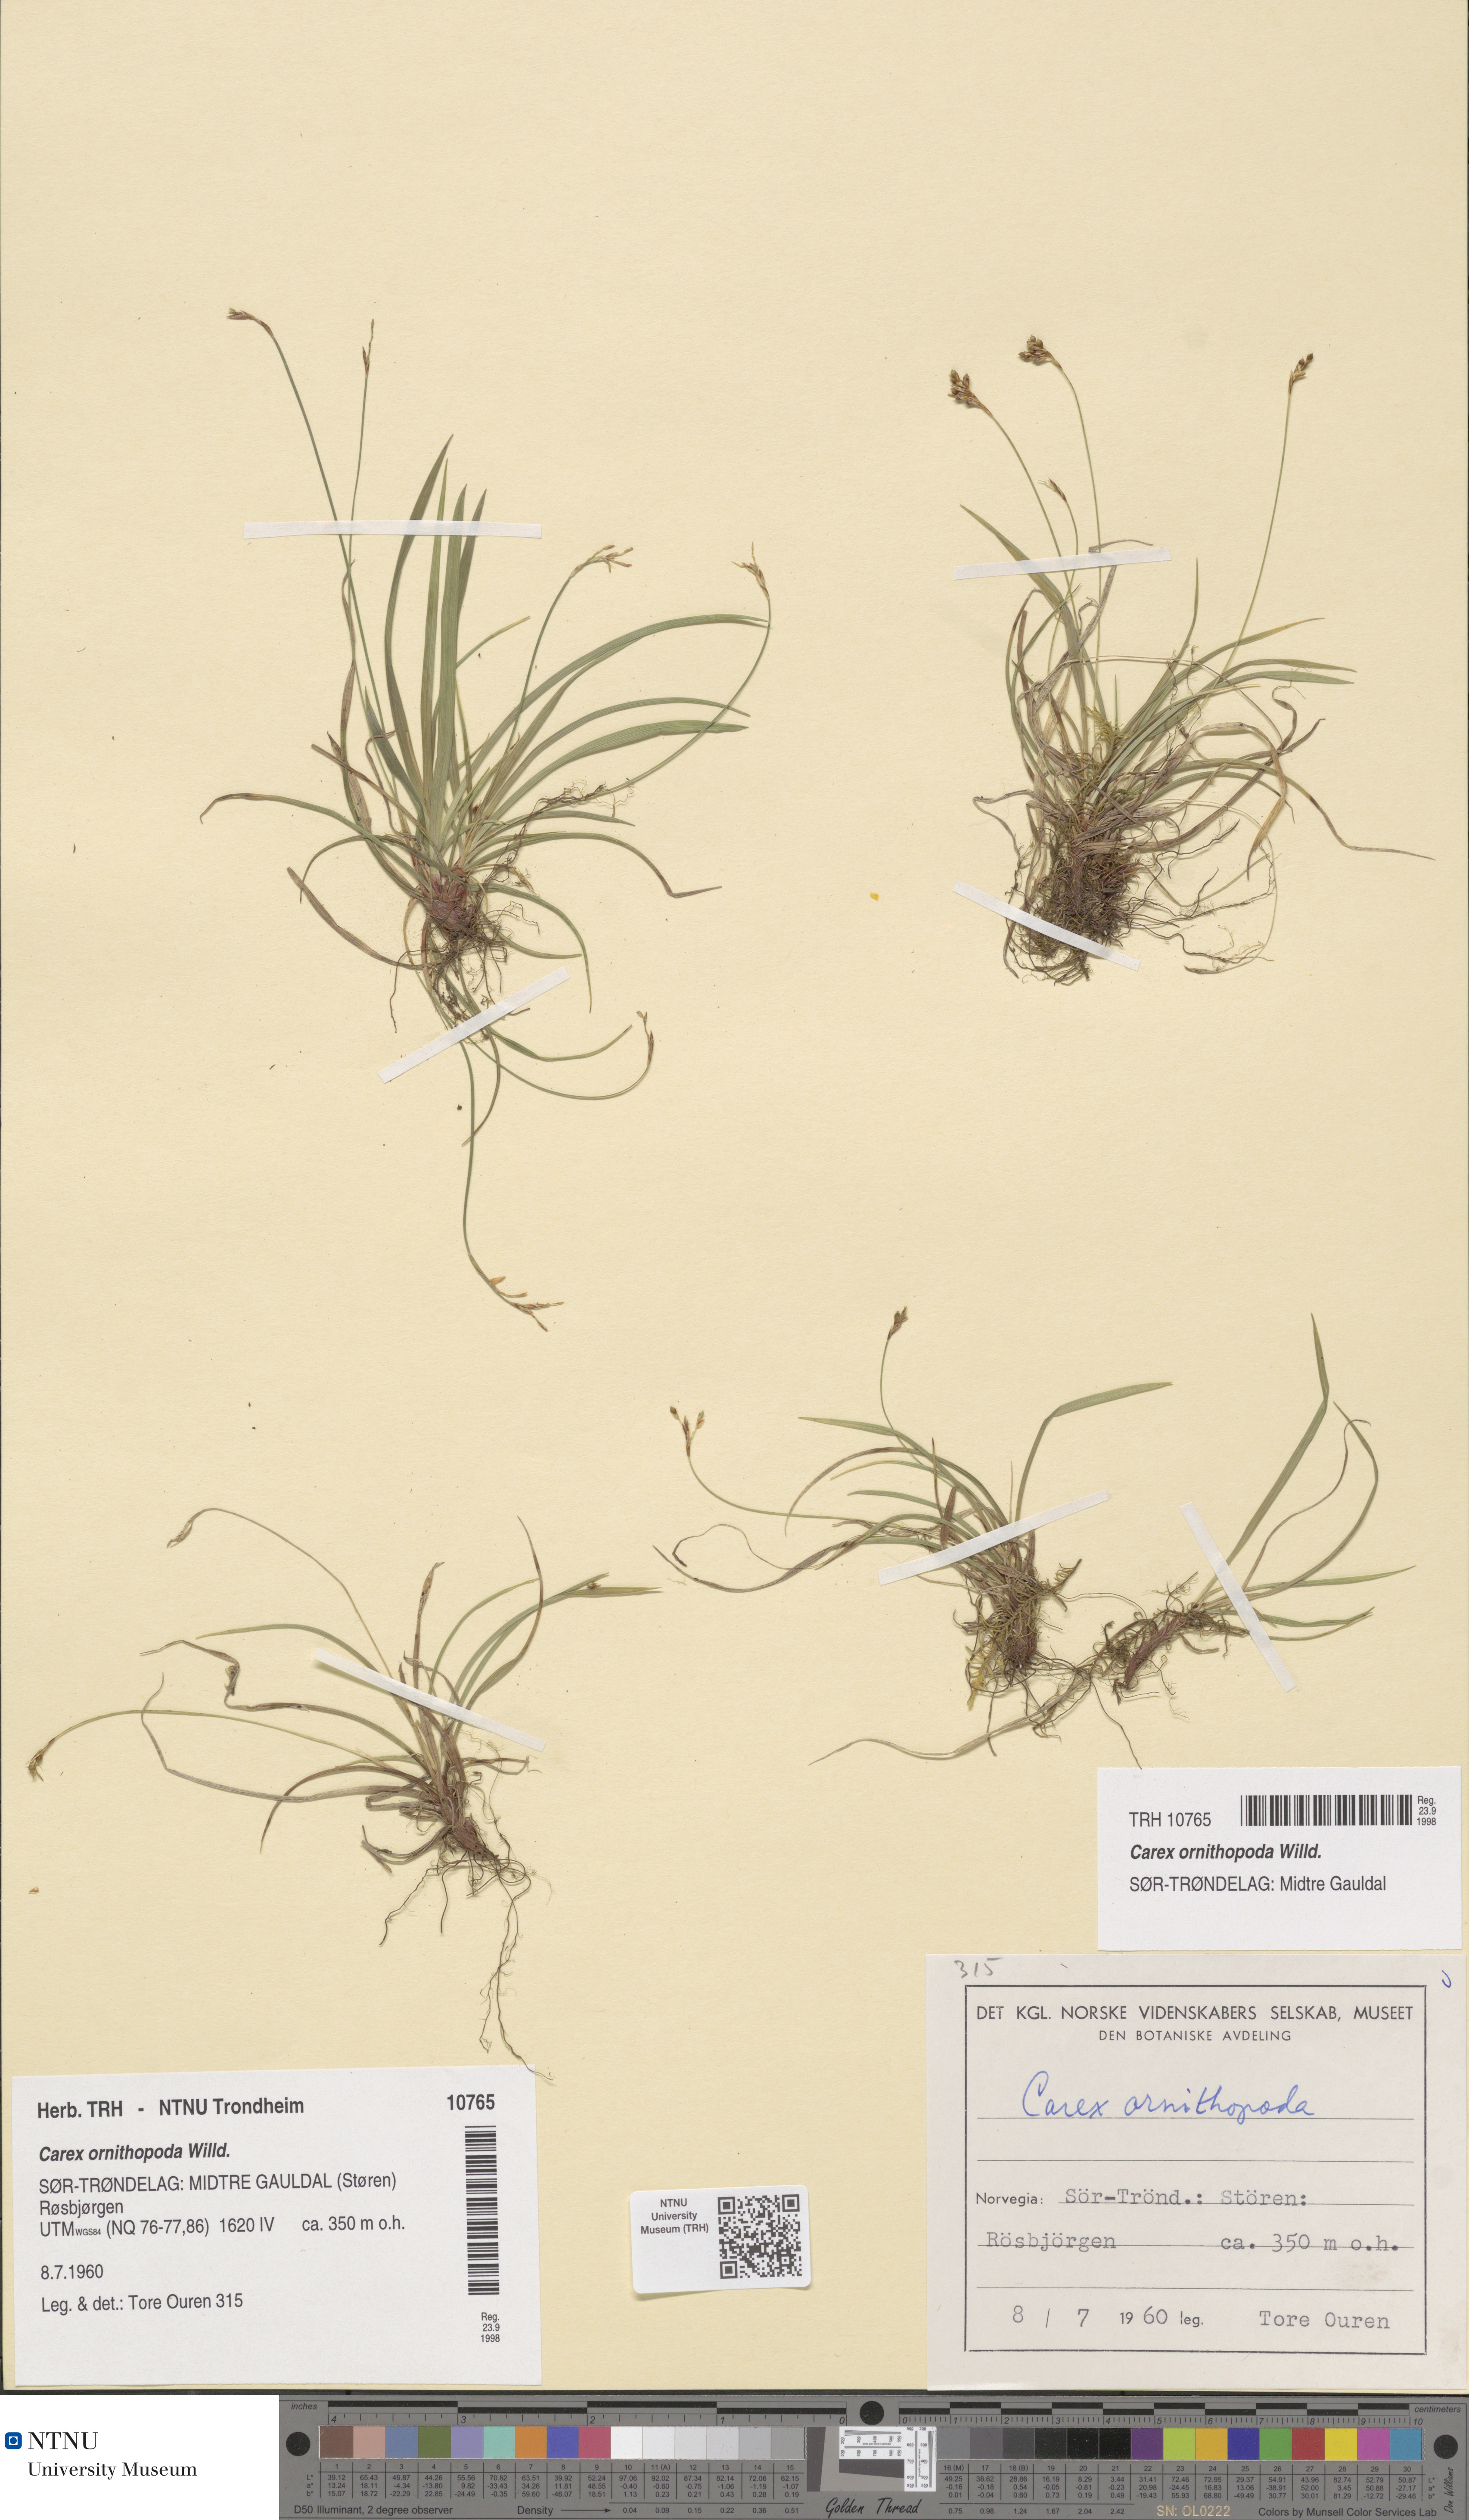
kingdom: Plantae
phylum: Tracheophyta
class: Liliopsida
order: Poales
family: Cyperaceae
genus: Carex
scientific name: Carex ornithopoda
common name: Bird's-foot sedge
